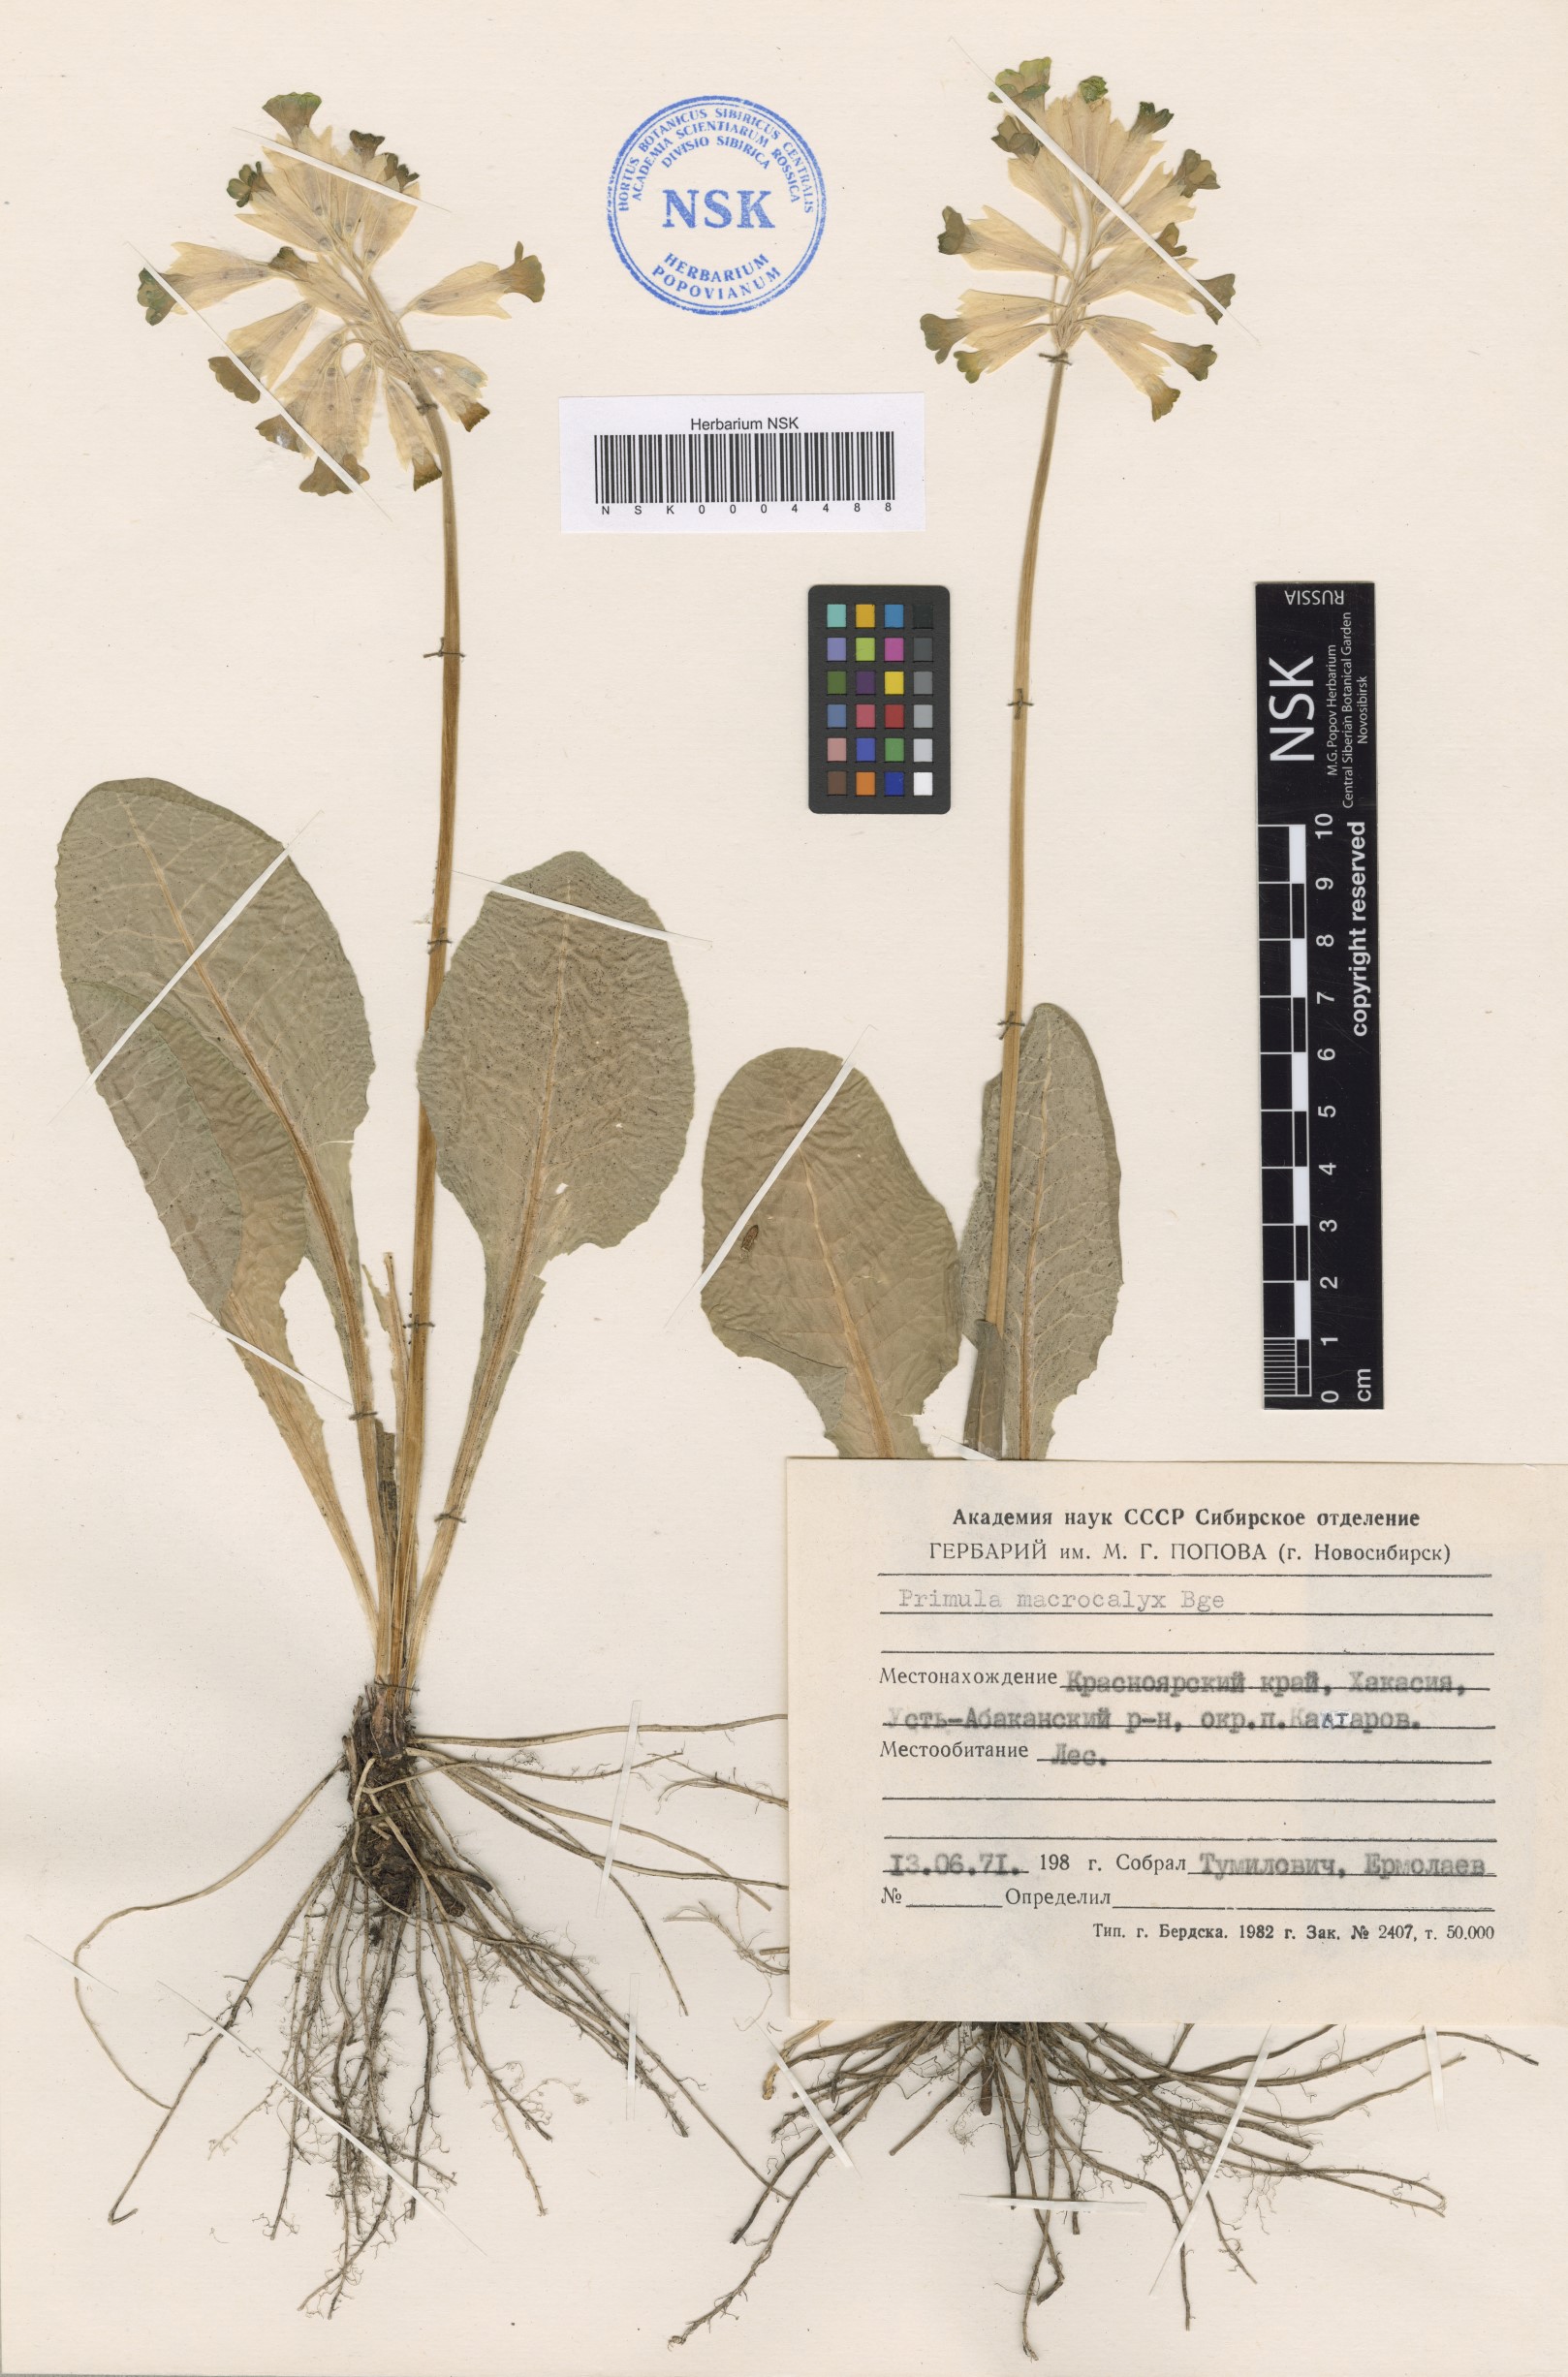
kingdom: Plantae
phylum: Tracheophyta
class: Magnoliopsida
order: Ericales
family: Primulaceae
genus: Primula
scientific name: Primula veris
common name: Cowslip
